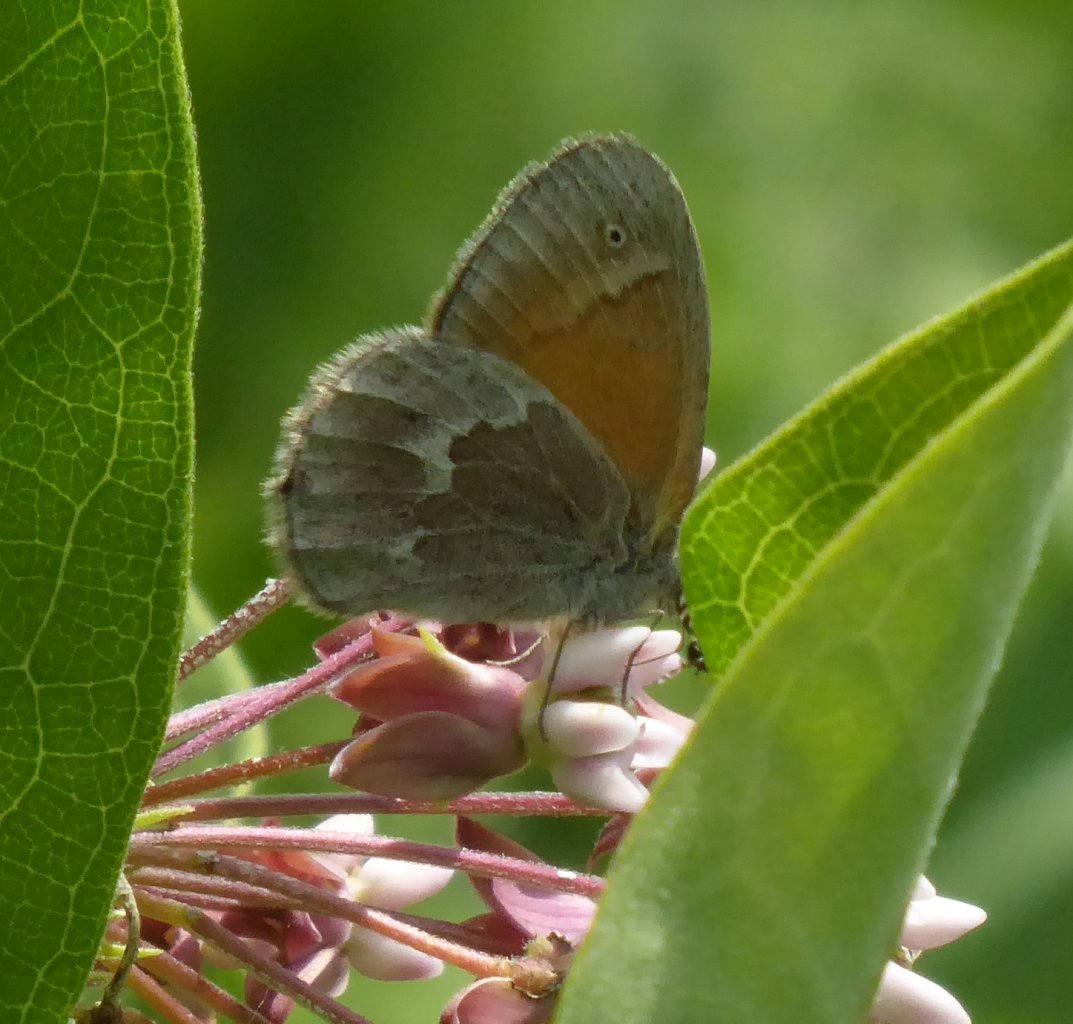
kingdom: Animalia
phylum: Arthropoda
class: Insecta
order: Lepidoptera
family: Nymphalidae
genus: Coenonympha
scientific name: Coenonympha tullia
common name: Large Heath
